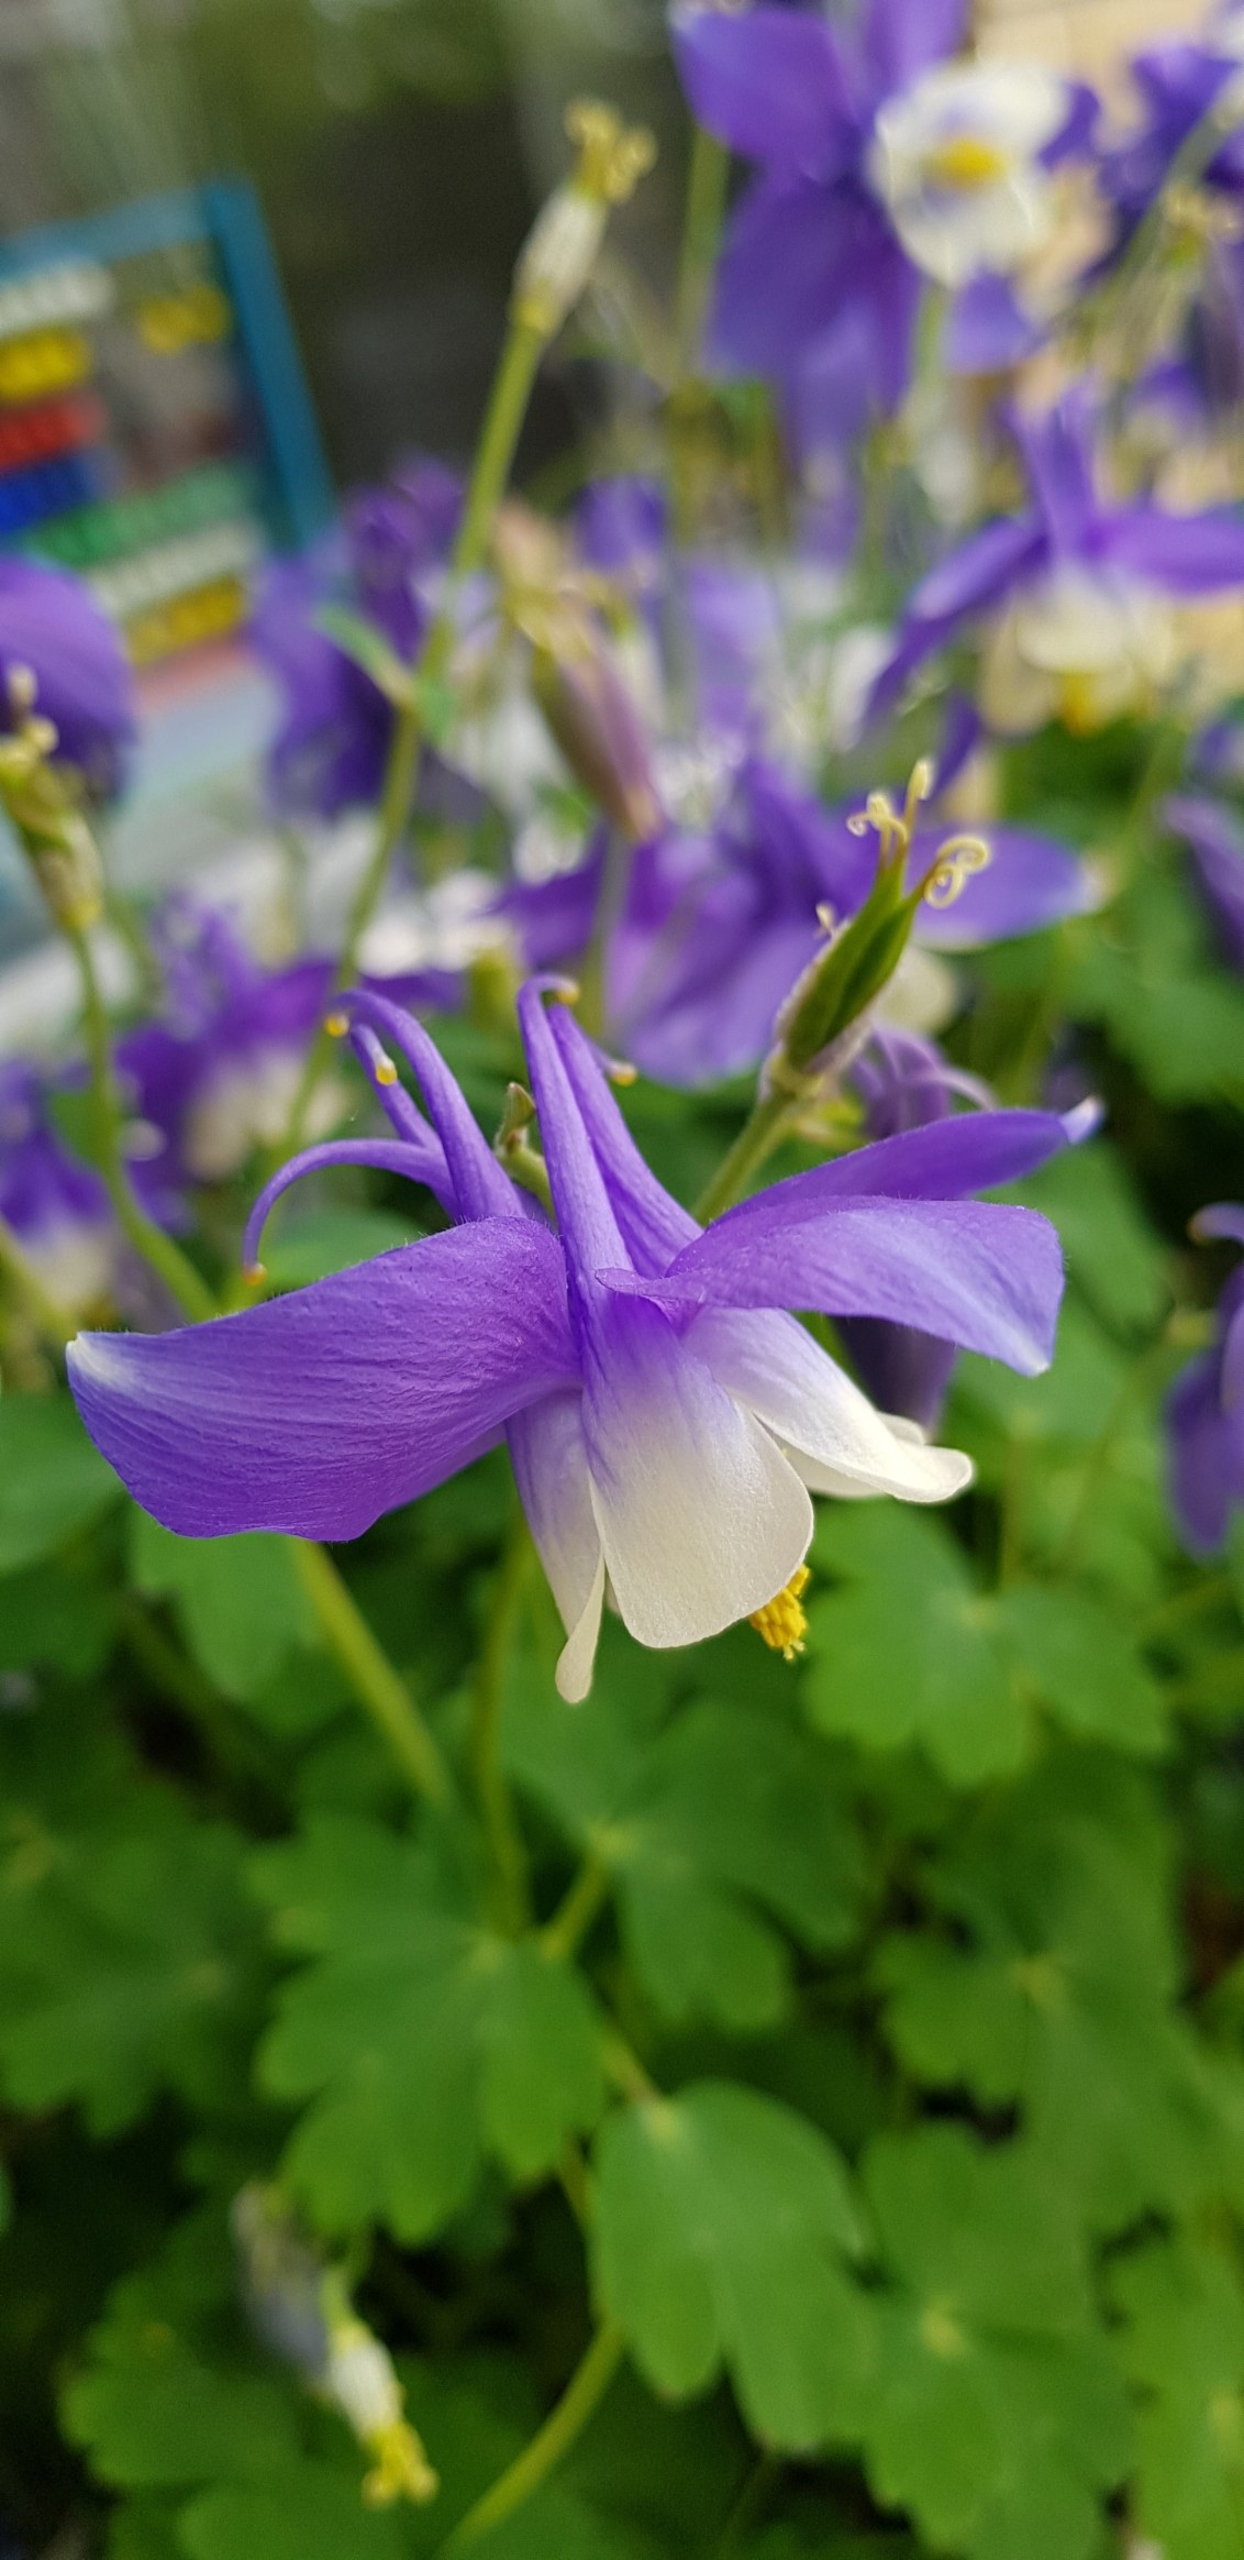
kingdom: Plantae
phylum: Tracheophyta
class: Magnoliopsida
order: Ranunculales
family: Ranunculaceae
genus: Aquilegia
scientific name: Aquilegia vulgaris
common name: Akeleje
